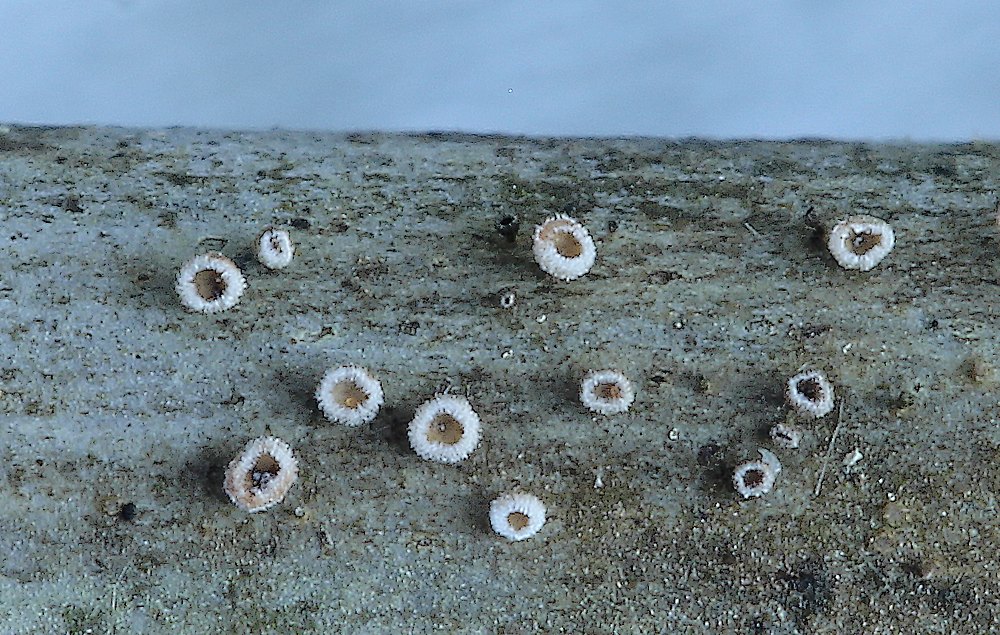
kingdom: Fungi
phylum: Ascomycota
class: Leotiomycetes
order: Helotiales
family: Lachnaceae
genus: Brunnipila
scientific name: Brunnipila palearum
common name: brunhåret frynseskive
